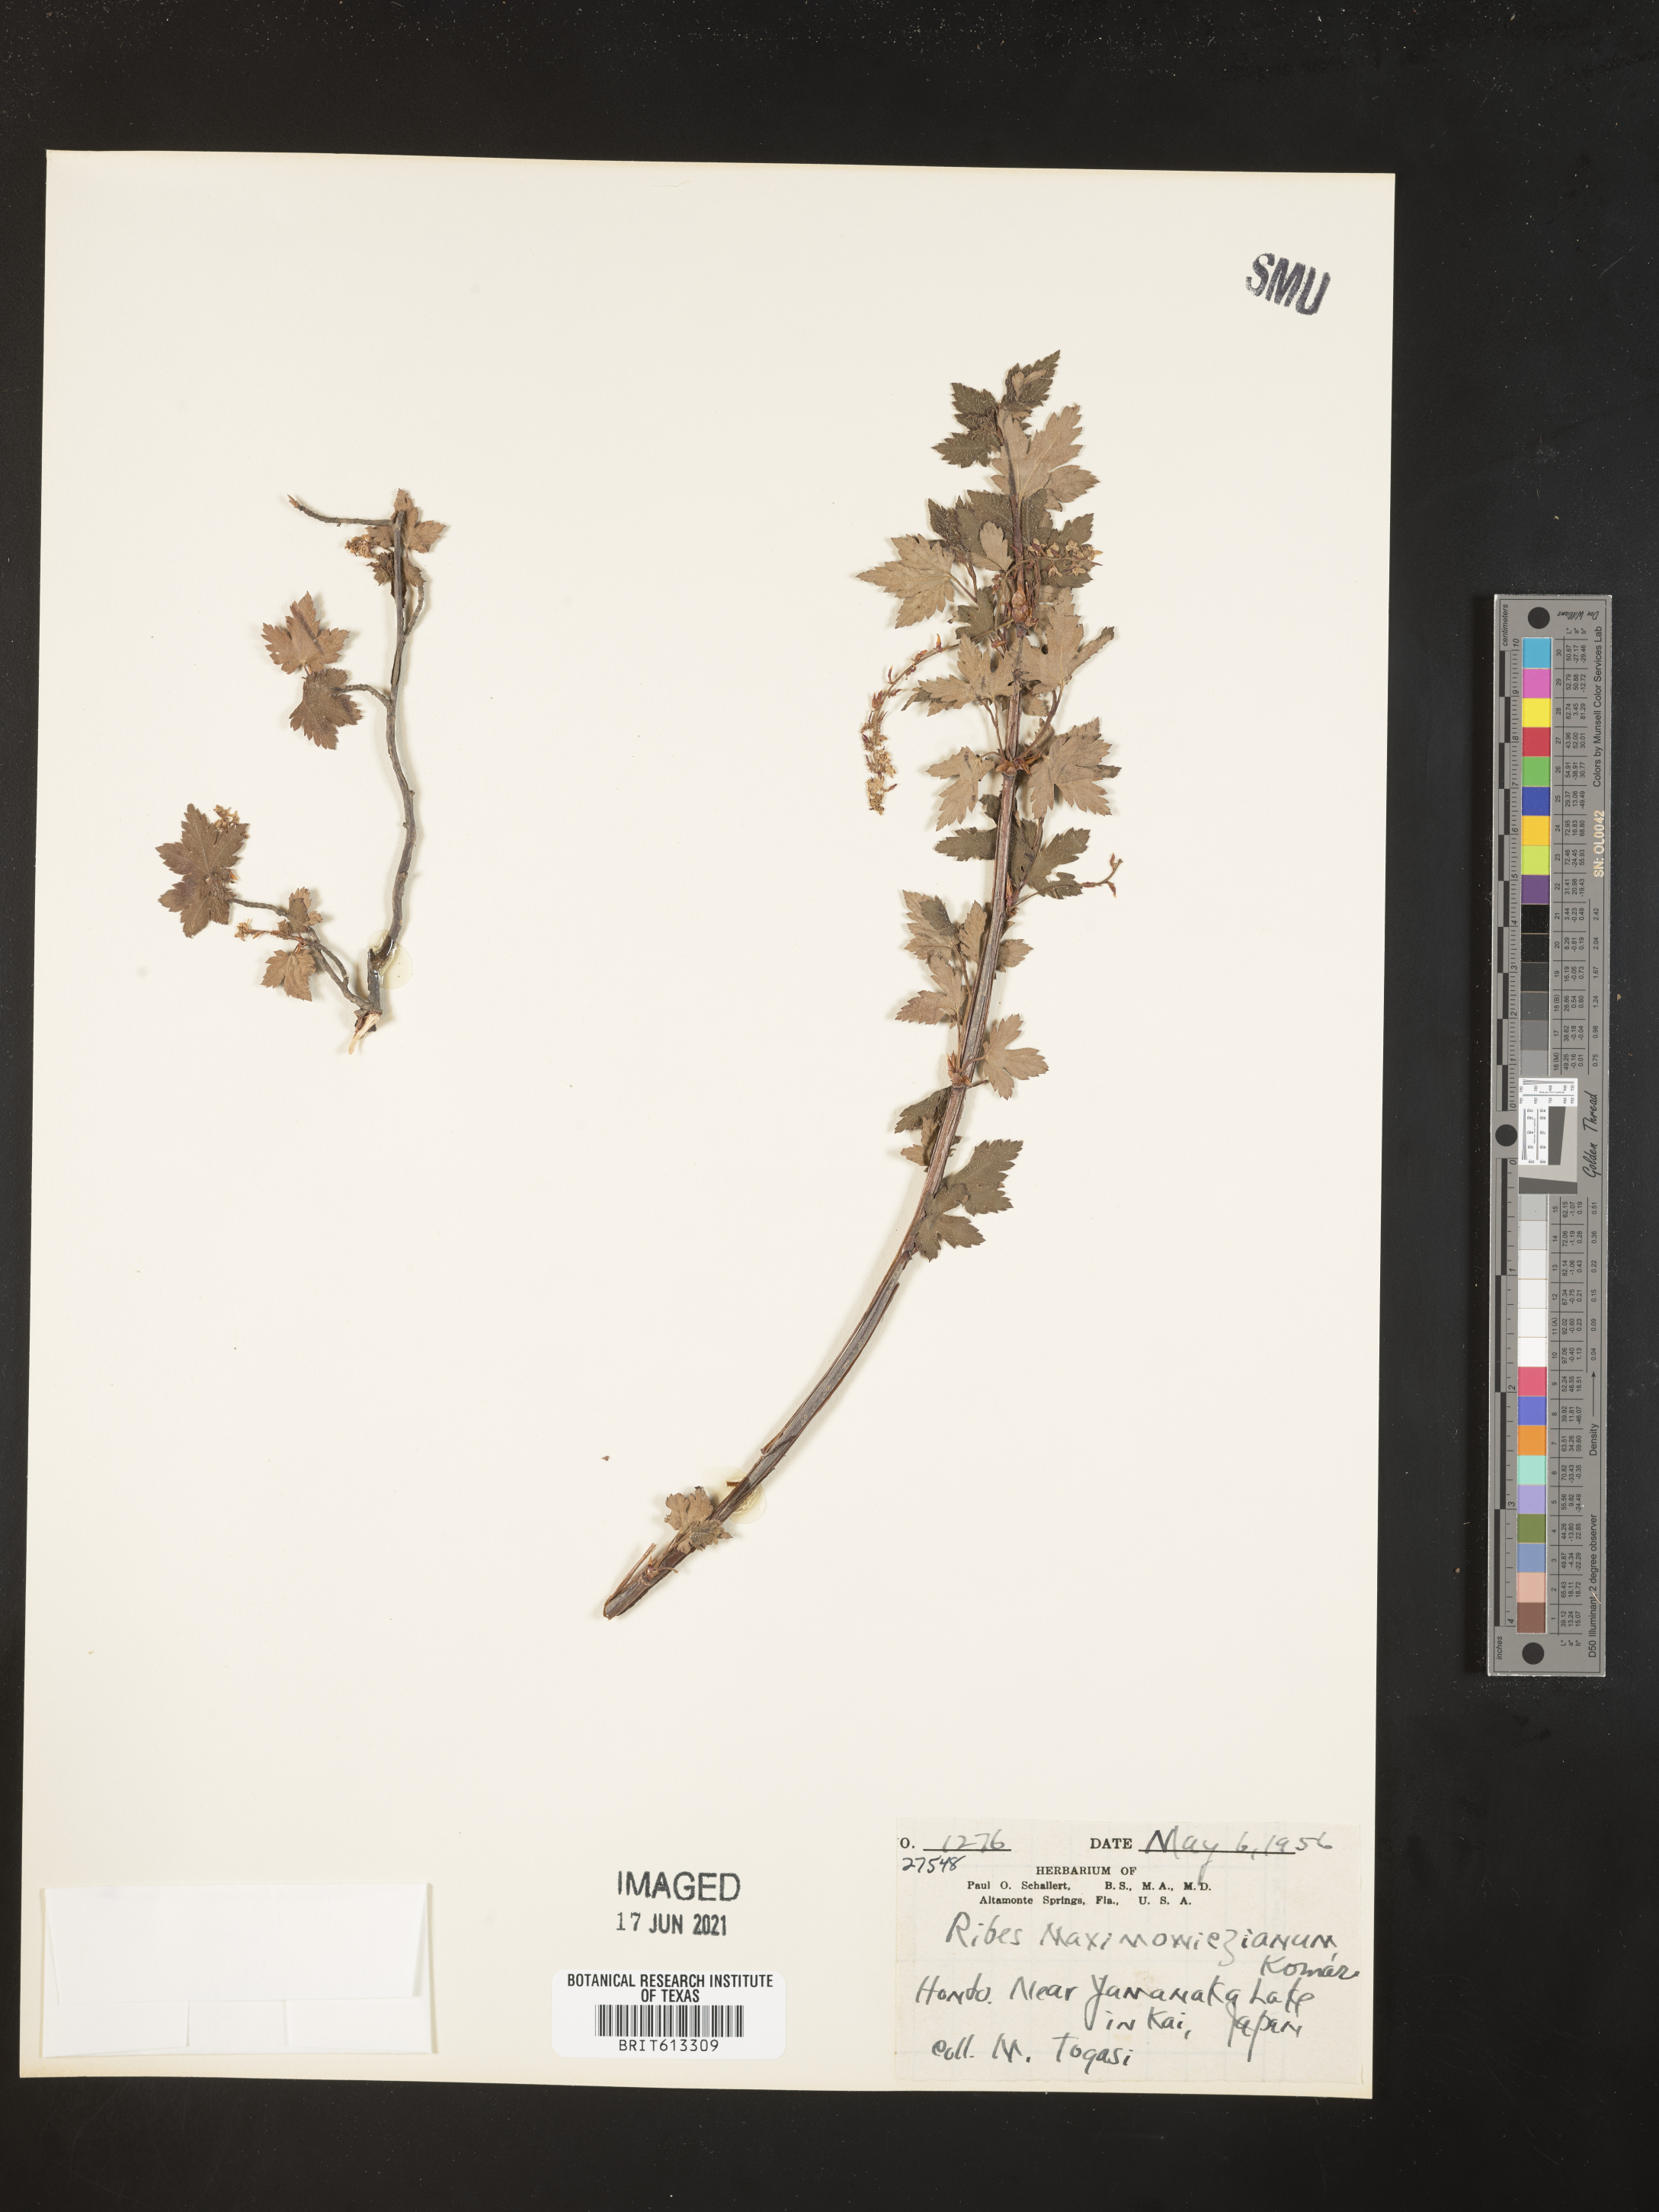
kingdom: Plantae
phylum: Tracheophyta
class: Magnoliopsida
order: Saxifragales
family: Grossulariaceae
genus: Ribes
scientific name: Ribes maximowiczianum
